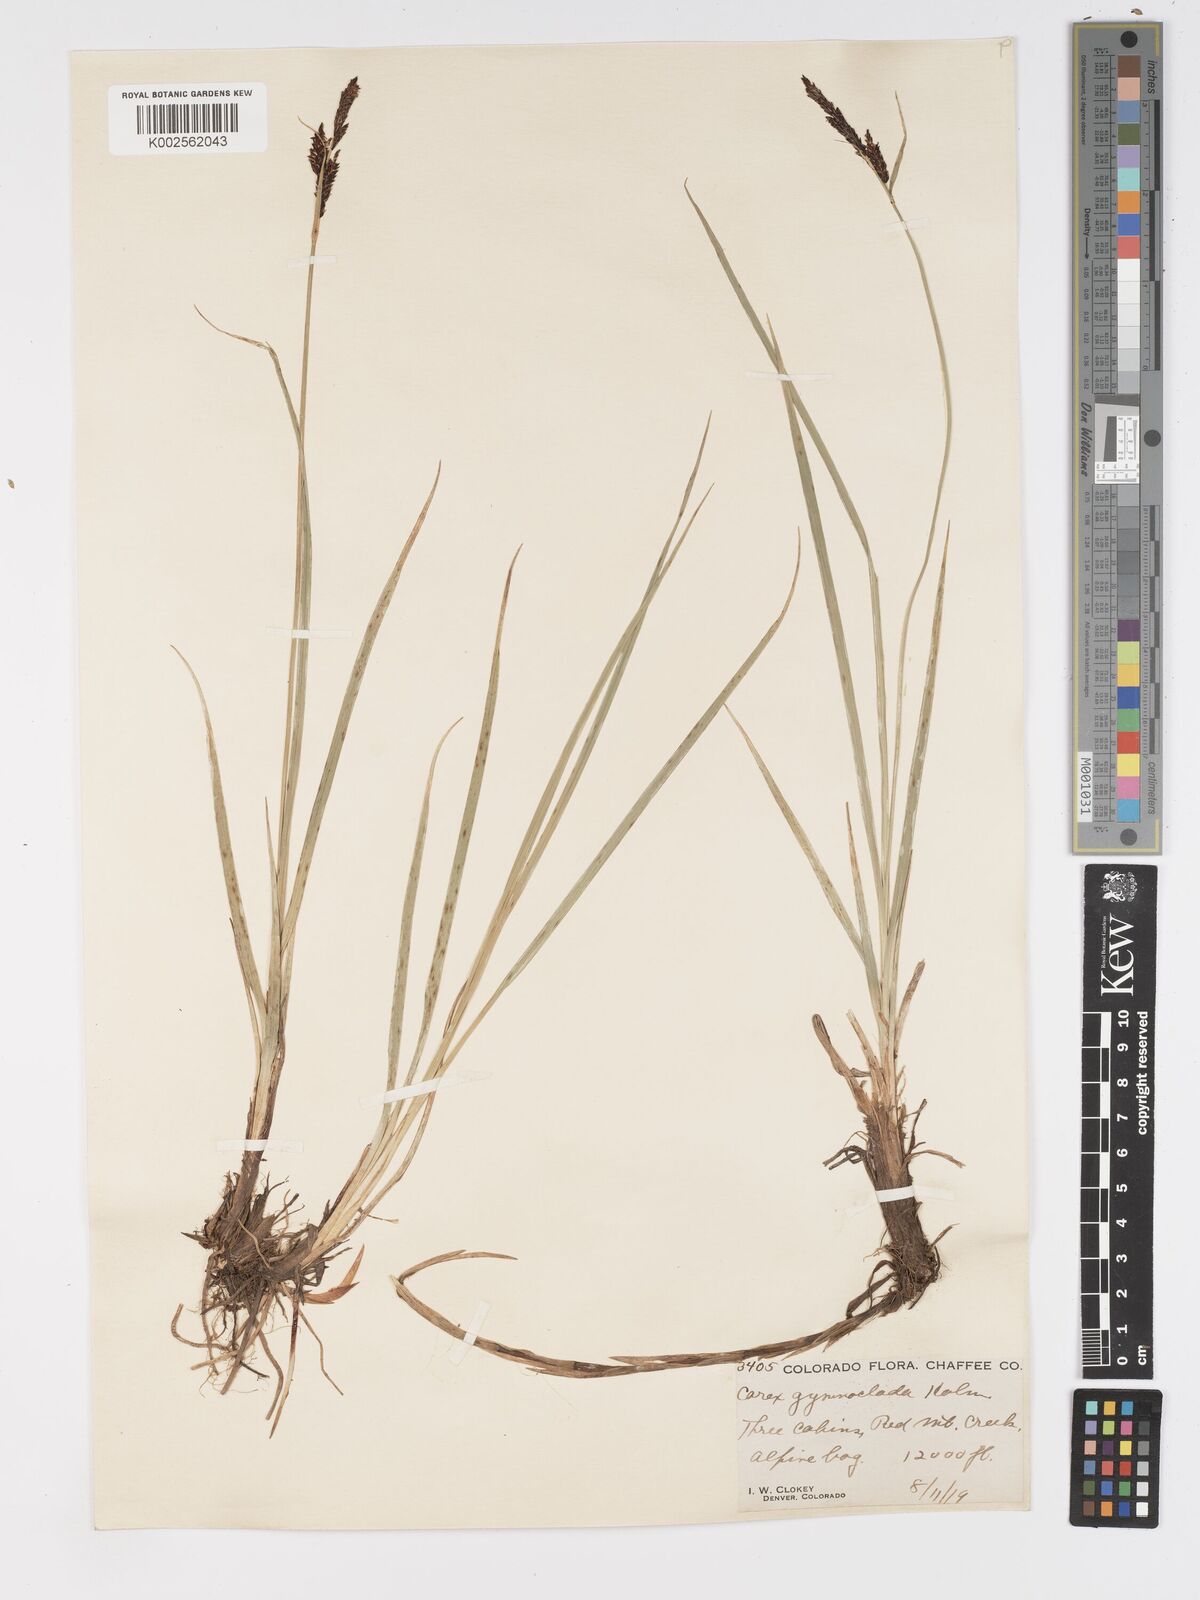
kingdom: Plantae
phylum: Tracheophyta
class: Liliopsida
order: Poales
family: Cyperaceae
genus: Carex
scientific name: Carex scopulorum
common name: Holm's rocky mountain sedge
